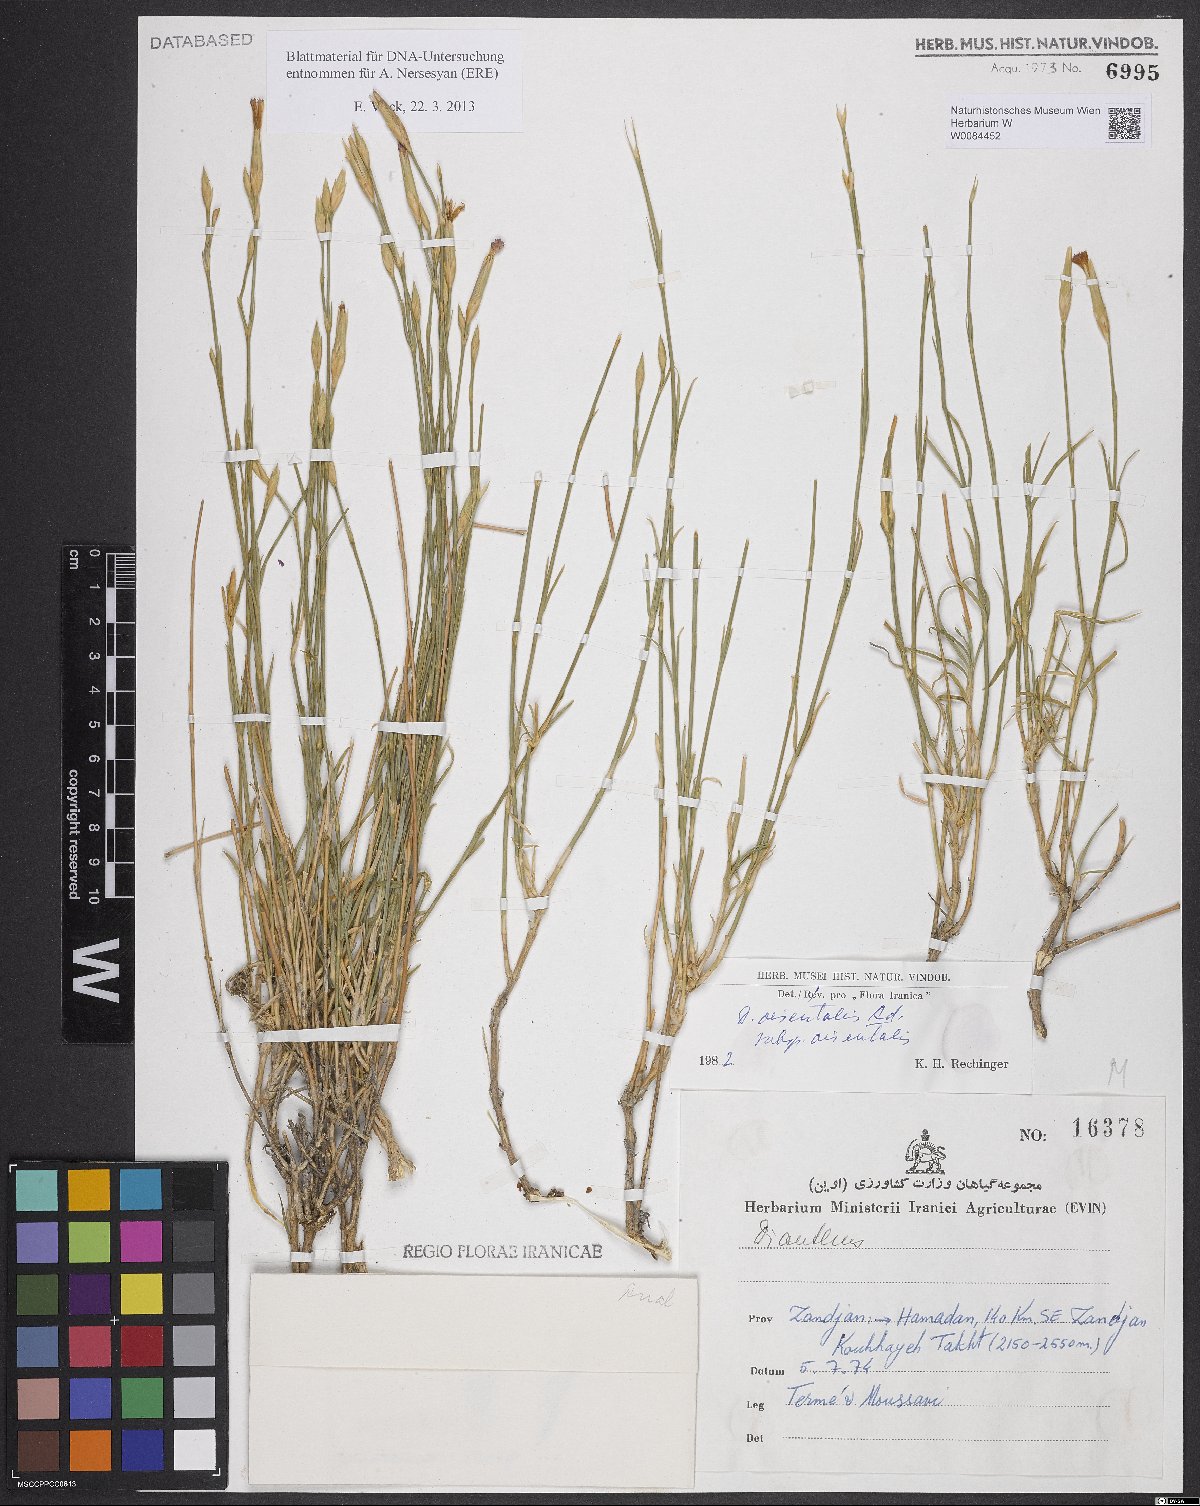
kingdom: Plantae
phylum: Tracheophyta
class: Magnoliopsida
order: Caryophyllales
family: Caryophyllaceae
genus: Dianthus
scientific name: Dianthus orientalis
